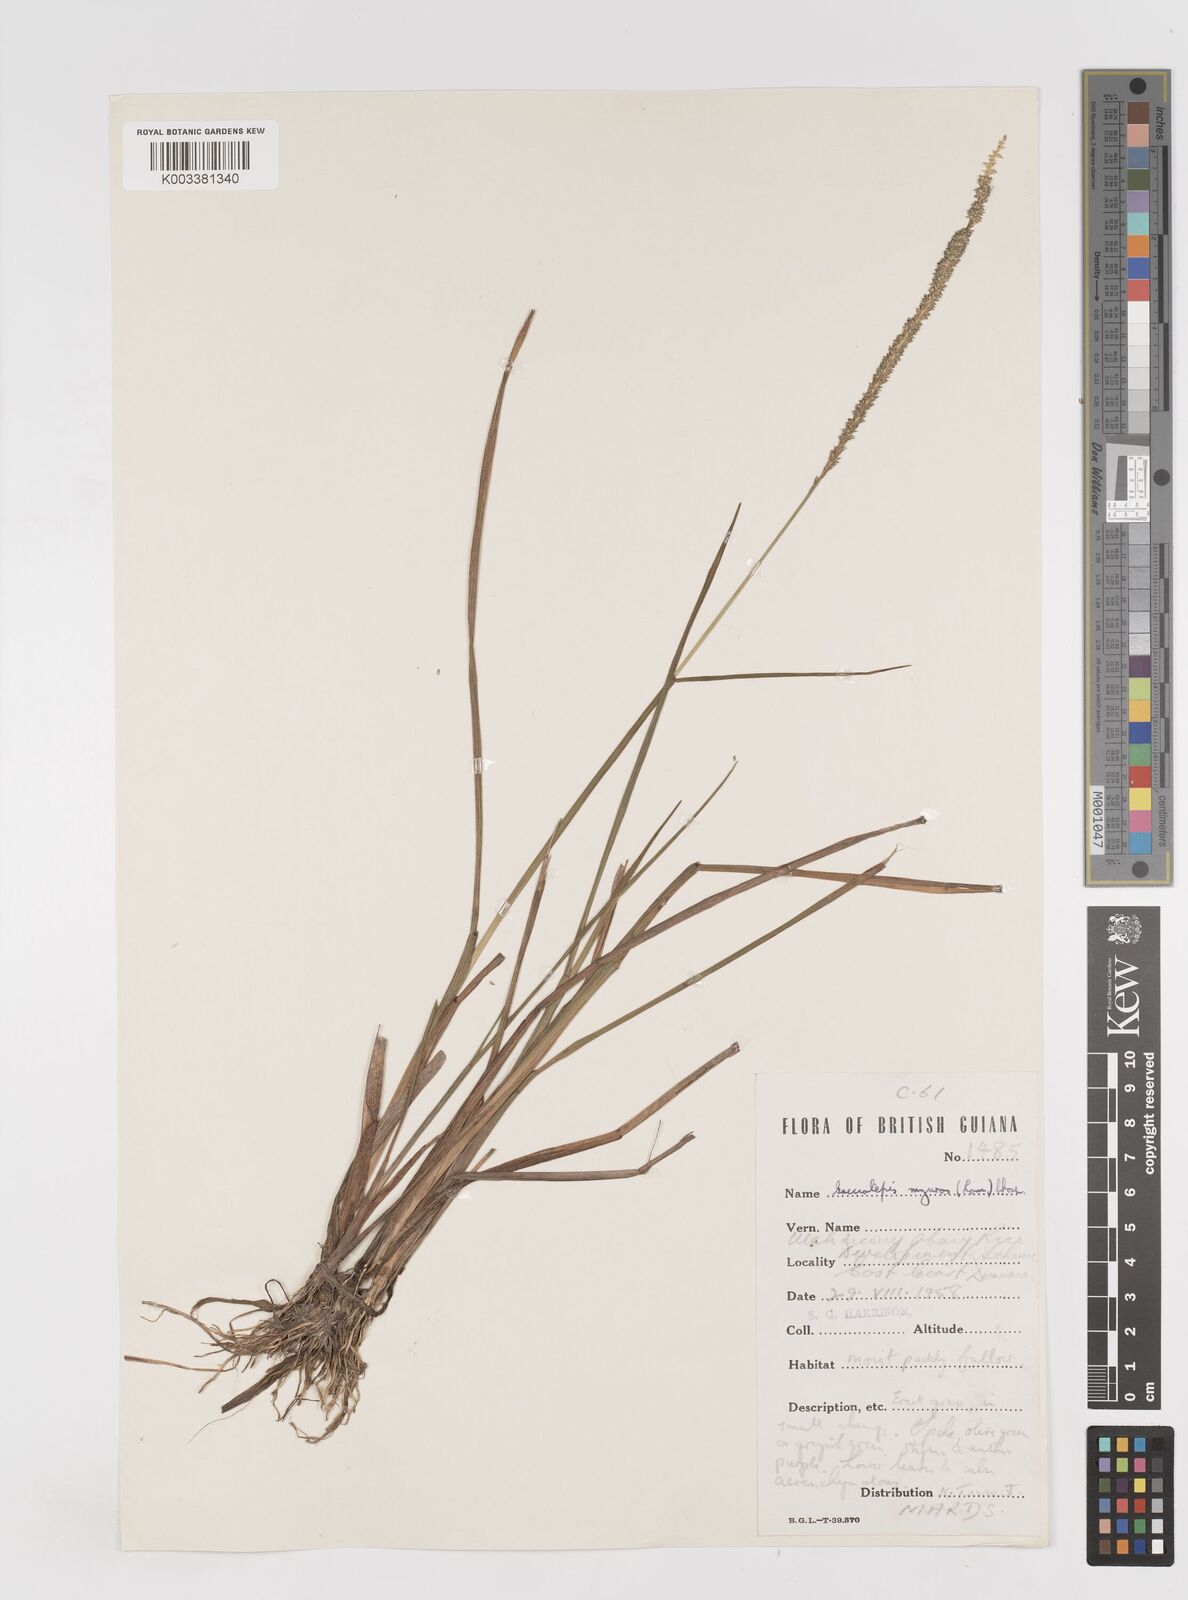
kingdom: Plantae
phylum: Tracheophyta
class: Liliopsida
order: Poales
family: Poaceae
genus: Sacciolepis
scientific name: Sacciolepis myuros
